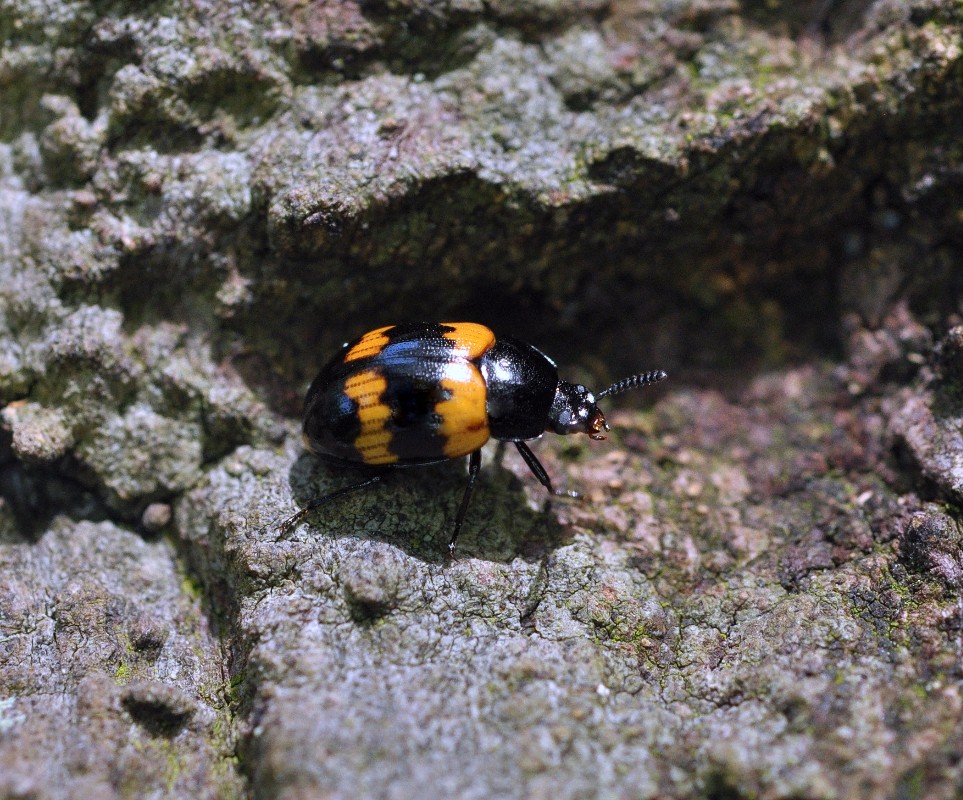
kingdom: Fungi
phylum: Basidiomycota
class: Agaricomycetes
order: Polyporales
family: Laetiporaceae
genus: Laetiporus
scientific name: Laetiporus sulphureus
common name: svovlporesvamp
